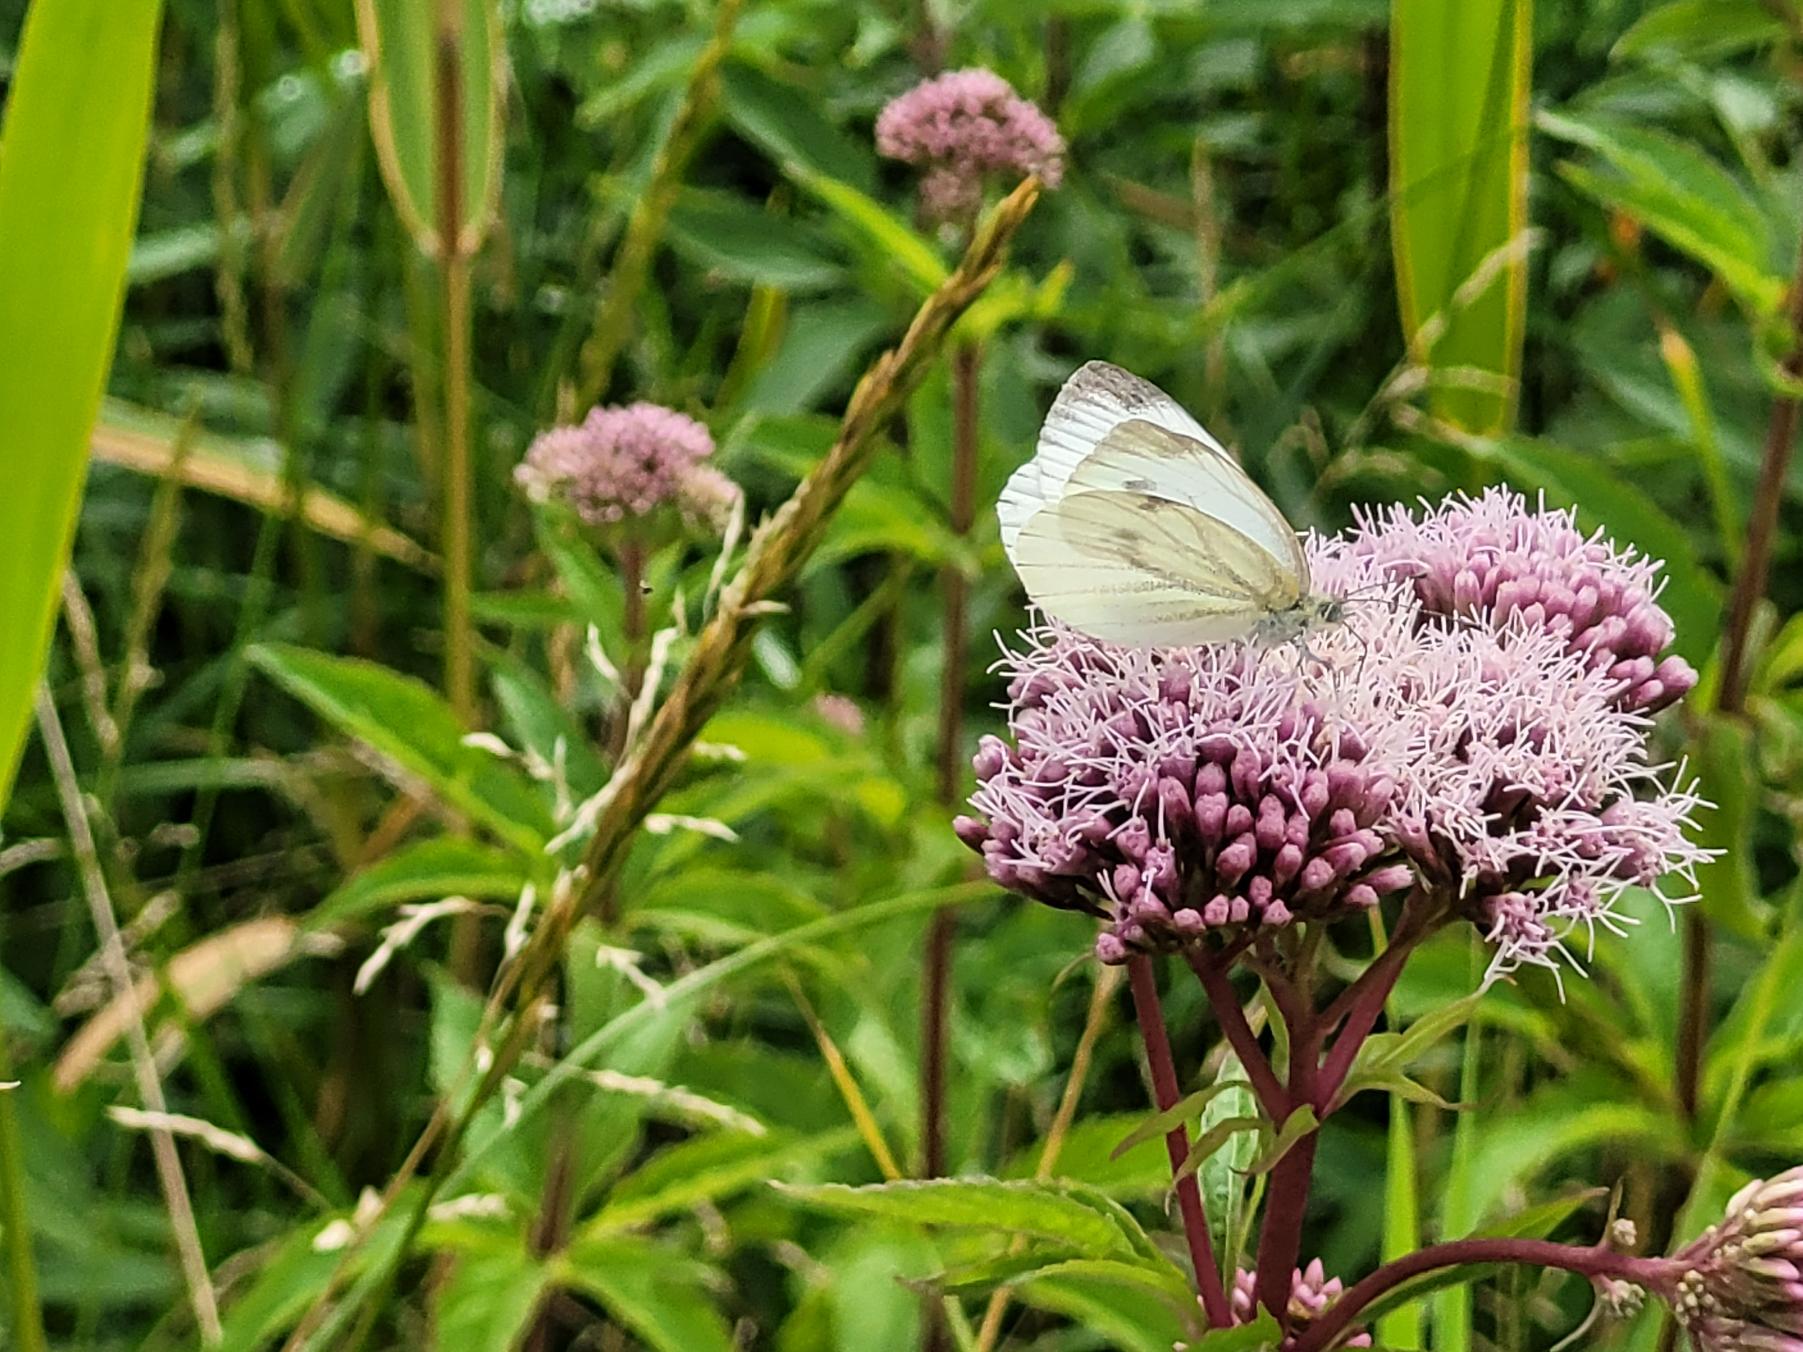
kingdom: Animalia
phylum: Arthropoda
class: Insecta
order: Lepidoptera
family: Pieridae
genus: Pieris
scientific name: Pieris napi
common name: Grønåret kålsommerfugl
